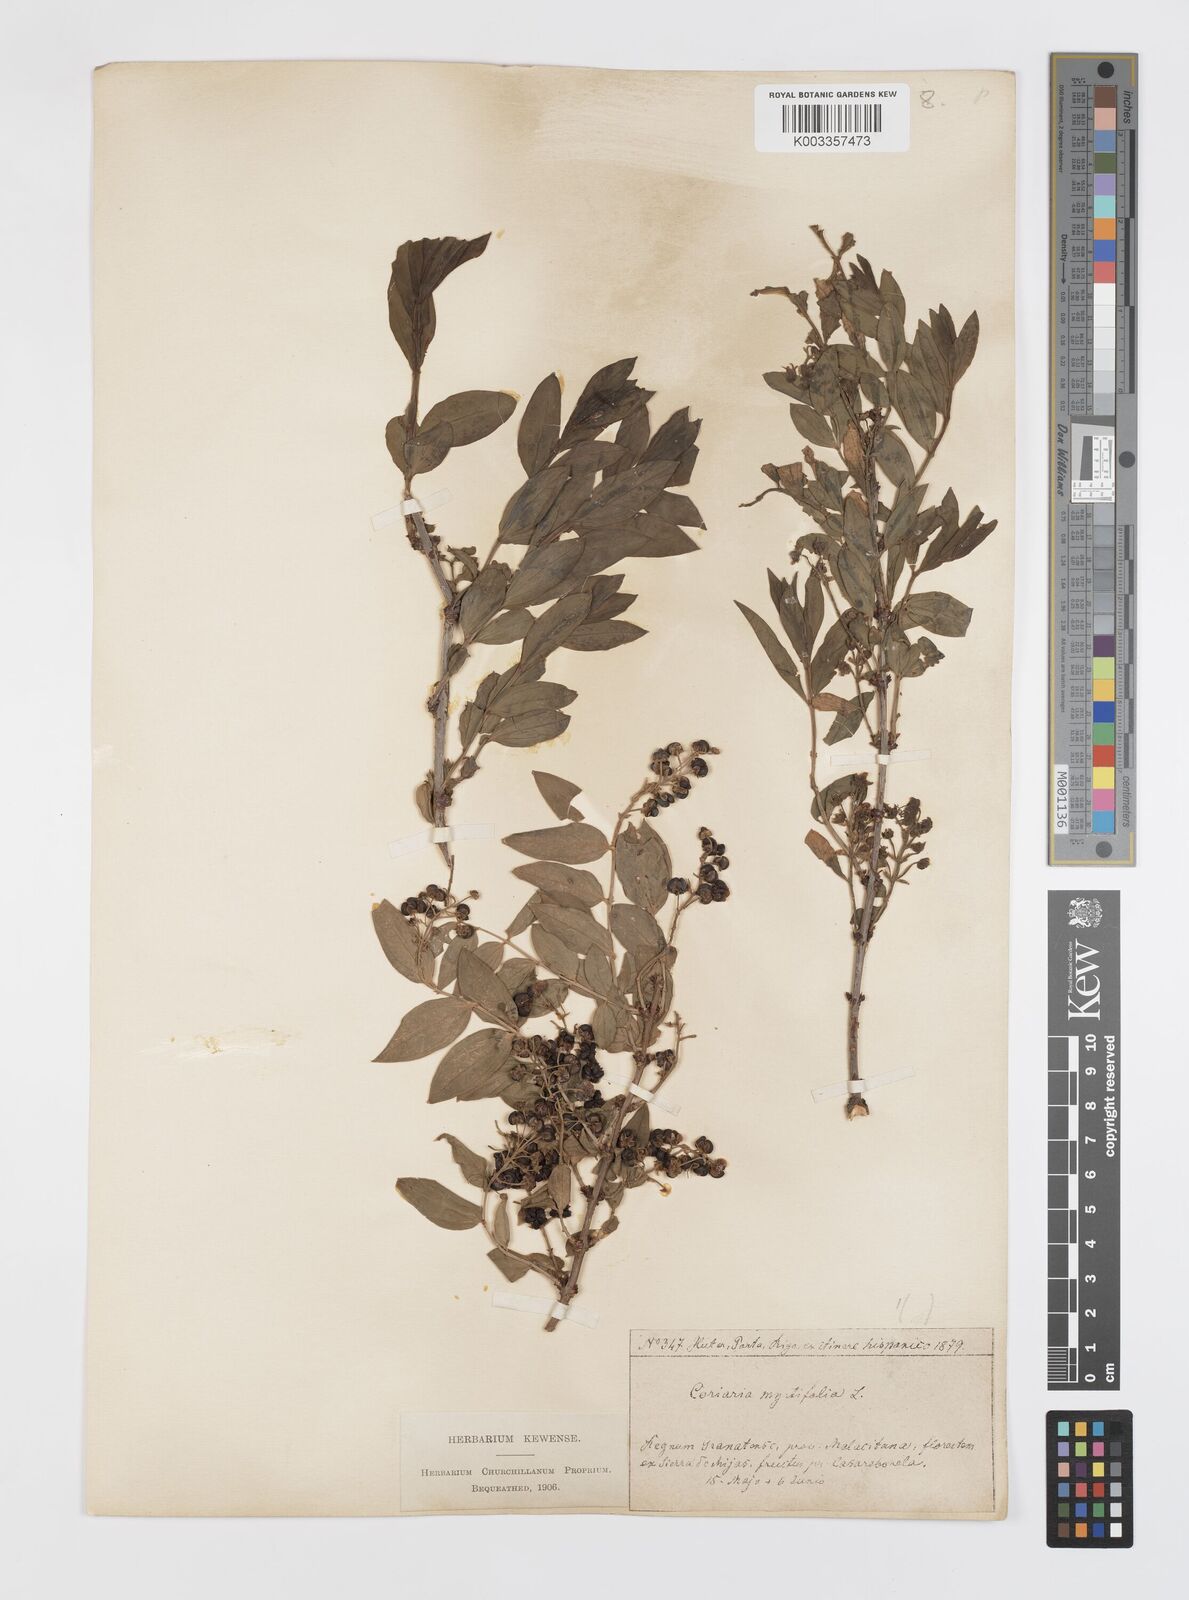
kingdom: Plantae
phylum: Tracheophyta
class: Magnoliopsida
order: Cucurbitales
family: Coriariaceae
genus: Coriaria
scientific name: Coriaria myrtifolia
